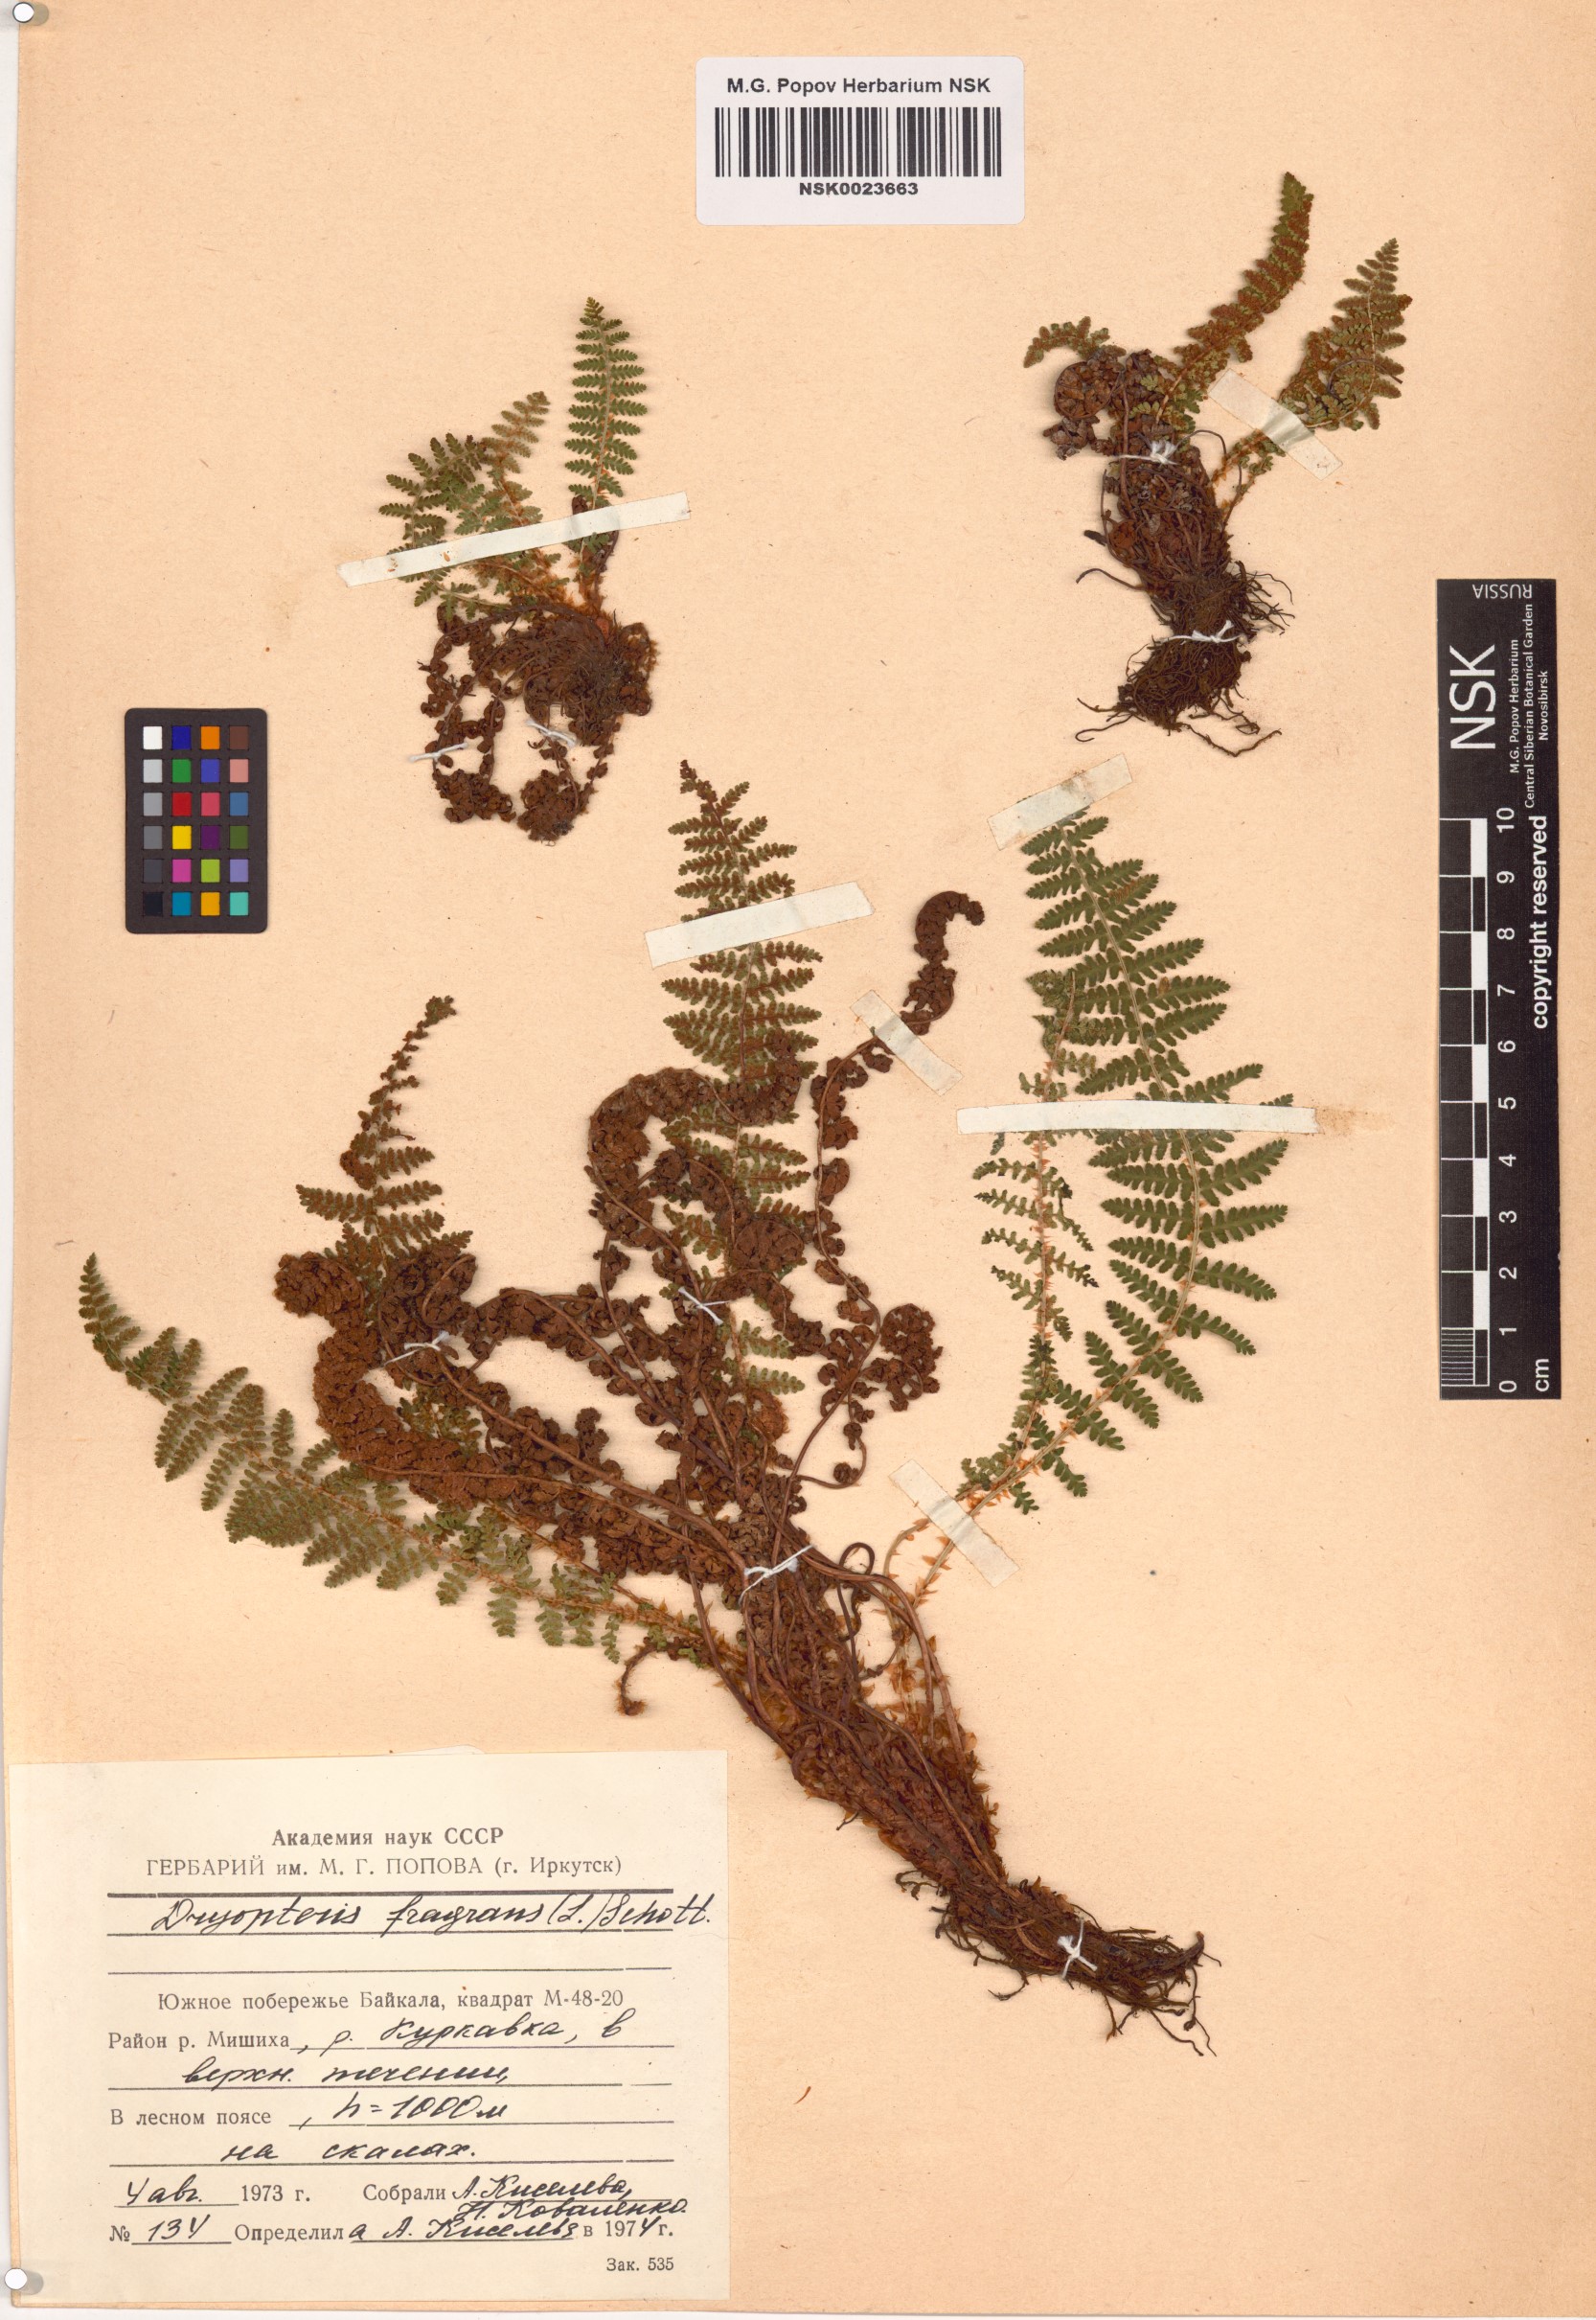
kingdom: Plantae
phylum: Tracheophyta
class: Polypodiopsida
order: Polypodiales
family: Dryopteridaceae
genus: Dryopteris
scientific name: Dryopteris fragrans
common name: Fragrant wood fern
